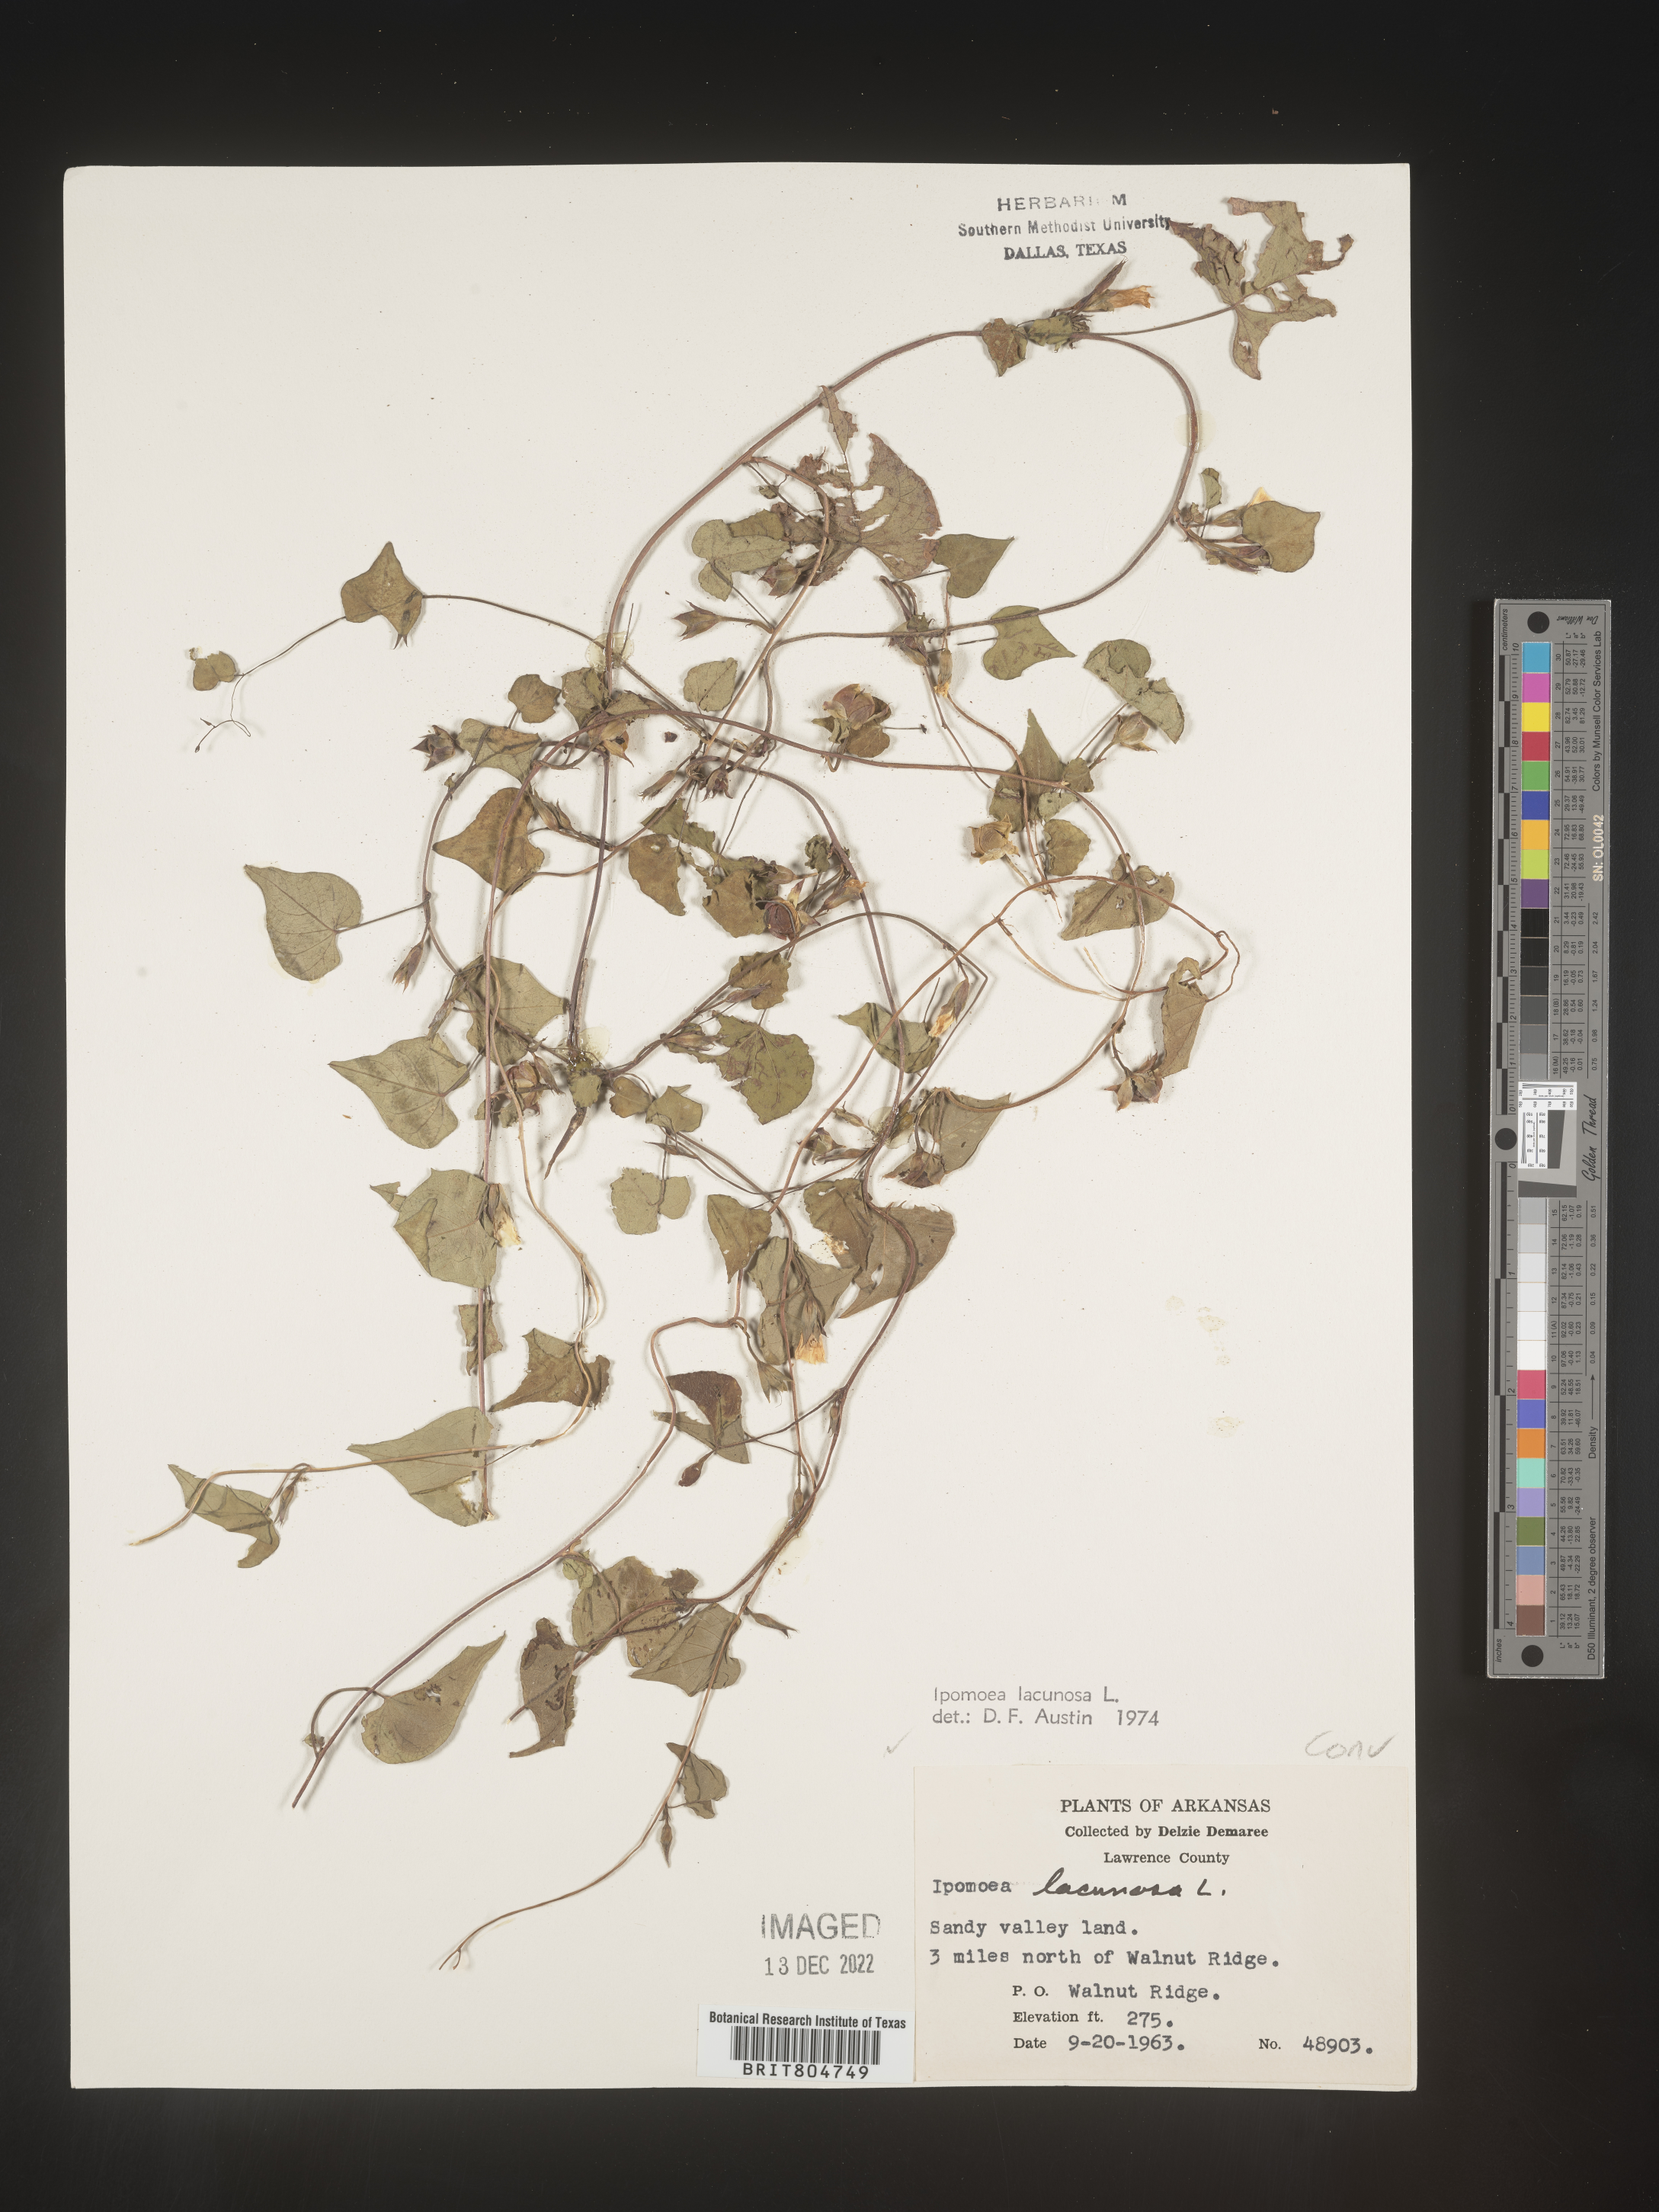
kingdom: Plantae
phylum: Tracheophyta
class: Magnoliopsida
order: Solanales
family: Convolvulaceae
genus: Ipomoea
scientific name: Ipomoea lacunosa
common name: White morning-glory
